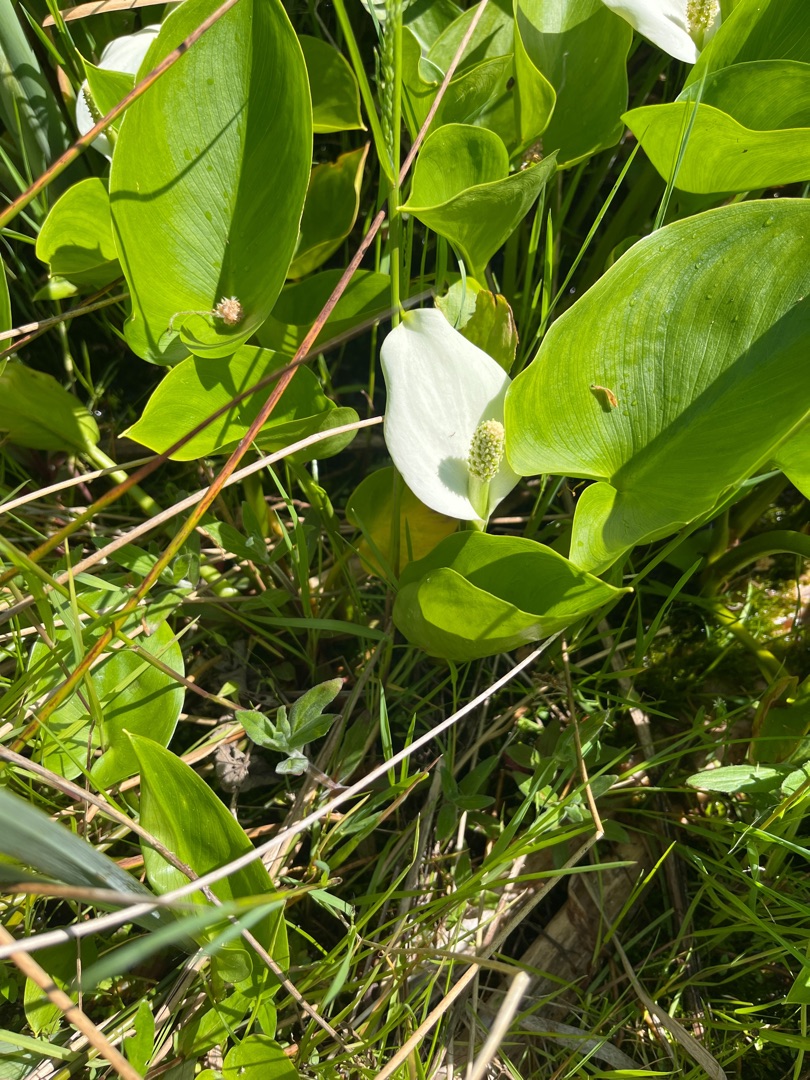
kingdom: Plantae
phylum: Tracheophyta
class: Liliopsida
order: Alismatales
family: Araceae
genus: Calla
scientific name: Calla palustris
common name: Kærmysse
